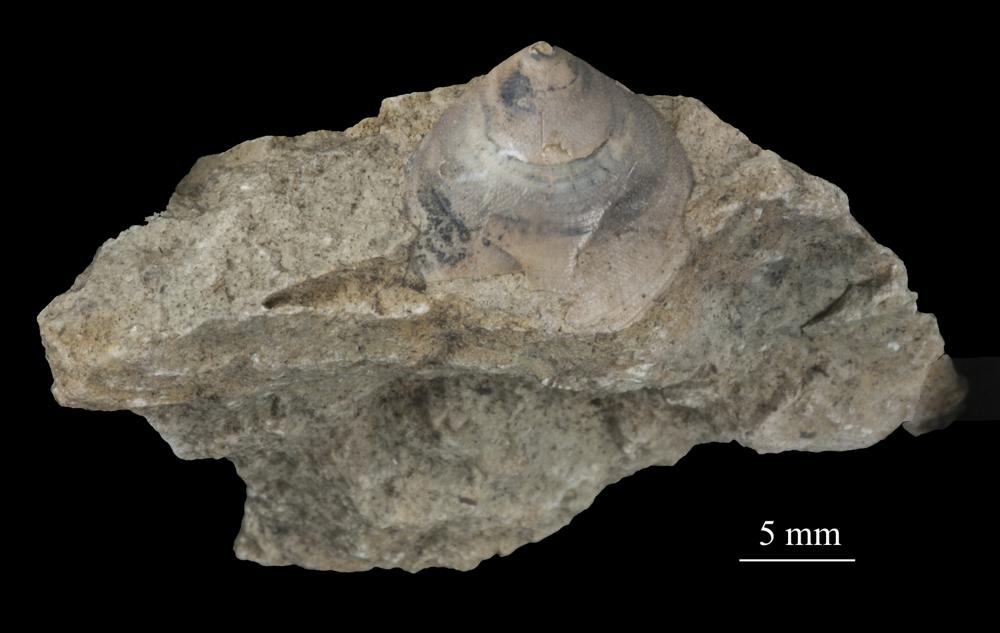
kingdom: Animalia
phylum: Brachiopoda
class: Lingulata
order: Siphonotretida
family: Siphonotretidae
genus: Siphonotreta
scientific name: Siphonotreta
